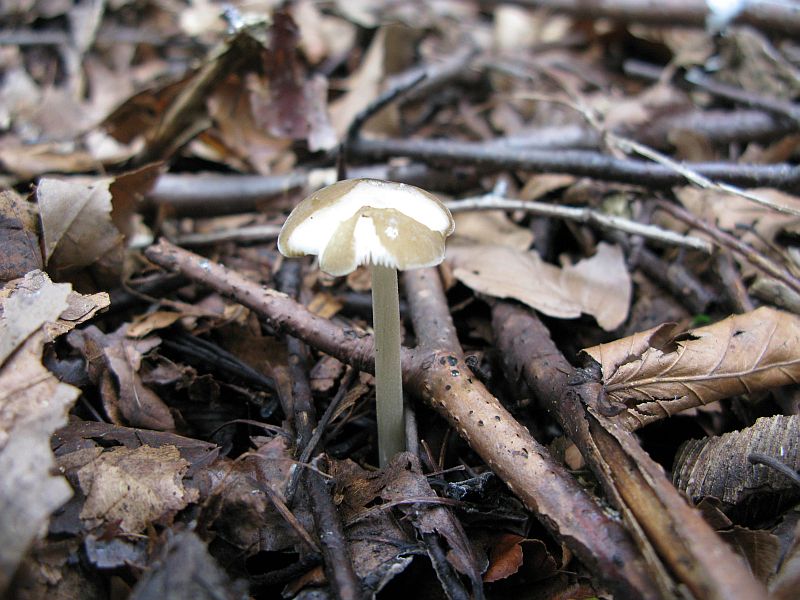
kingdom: Fungi
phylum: Basidiomycota
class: Agaricomycetes
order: Agaricales
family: Porotheleaceae
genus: Hydropodia
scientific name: Hydropodia subalpina
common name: vår-fnugfod
